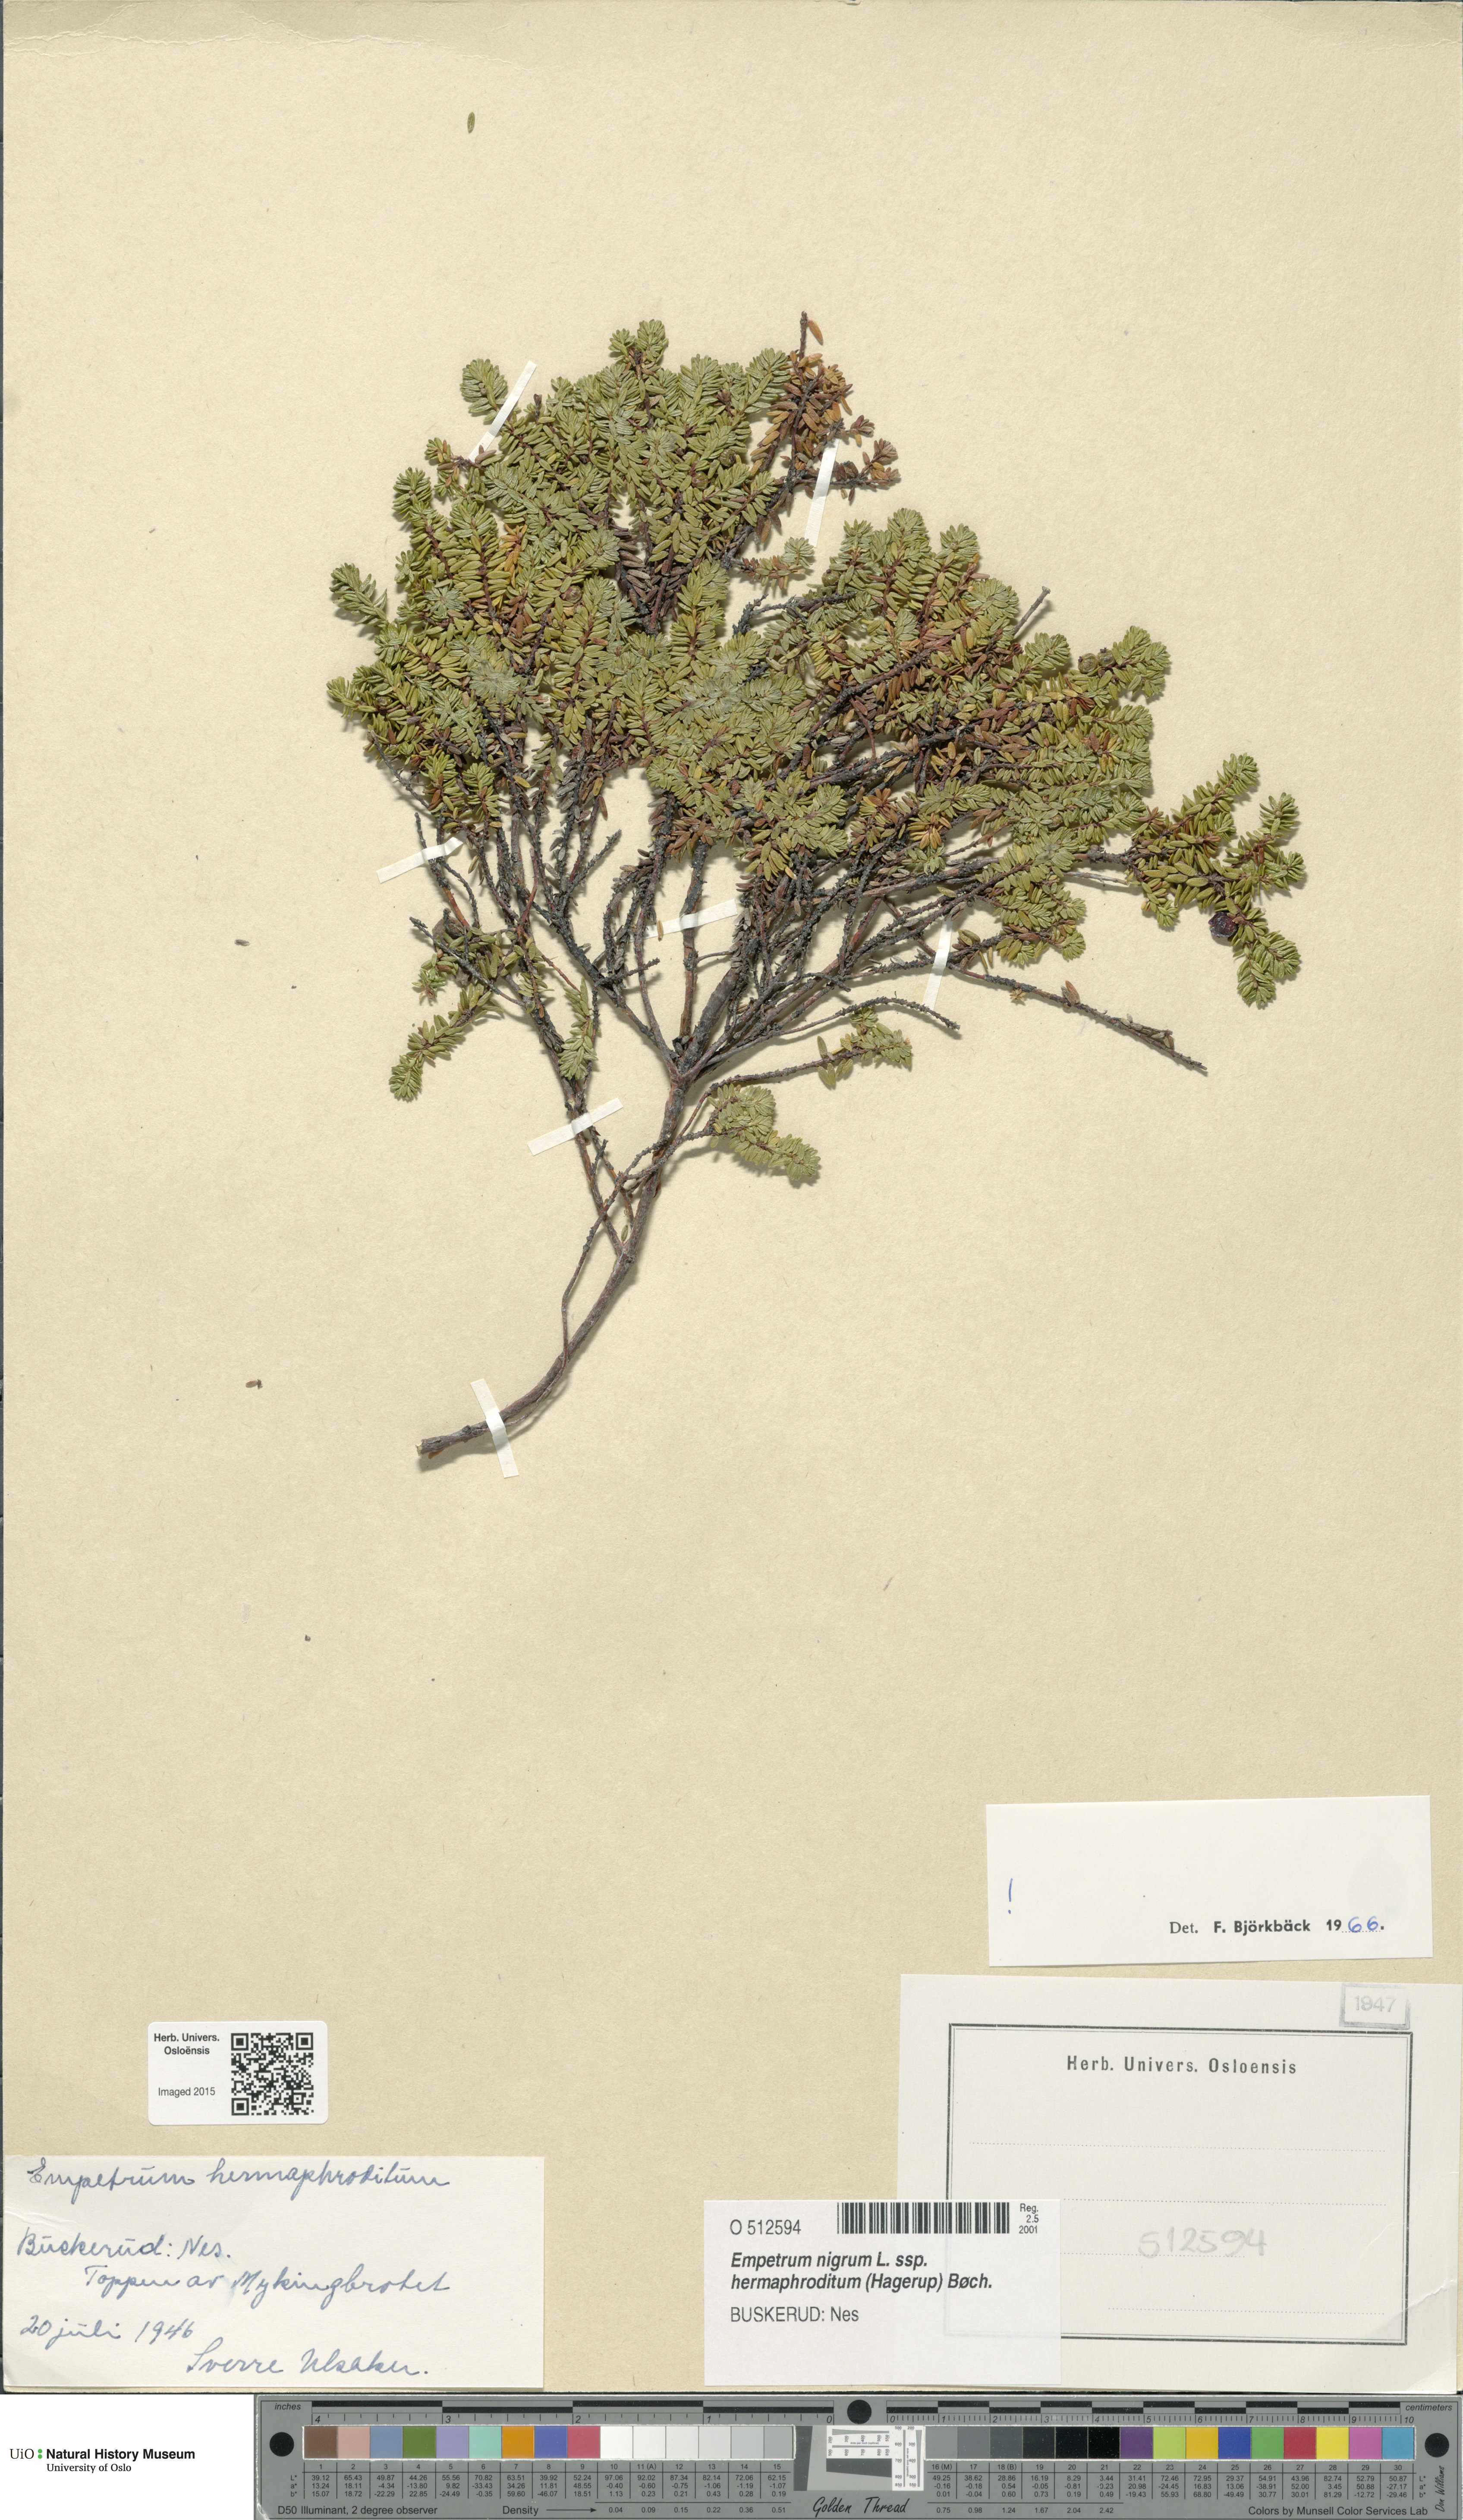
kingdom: Plantae
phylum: Tracheophyta
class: Magnoliopsida
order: Ericales
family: Ericaceae
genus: Empetrum
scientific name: Empetrum hermaphroditum
